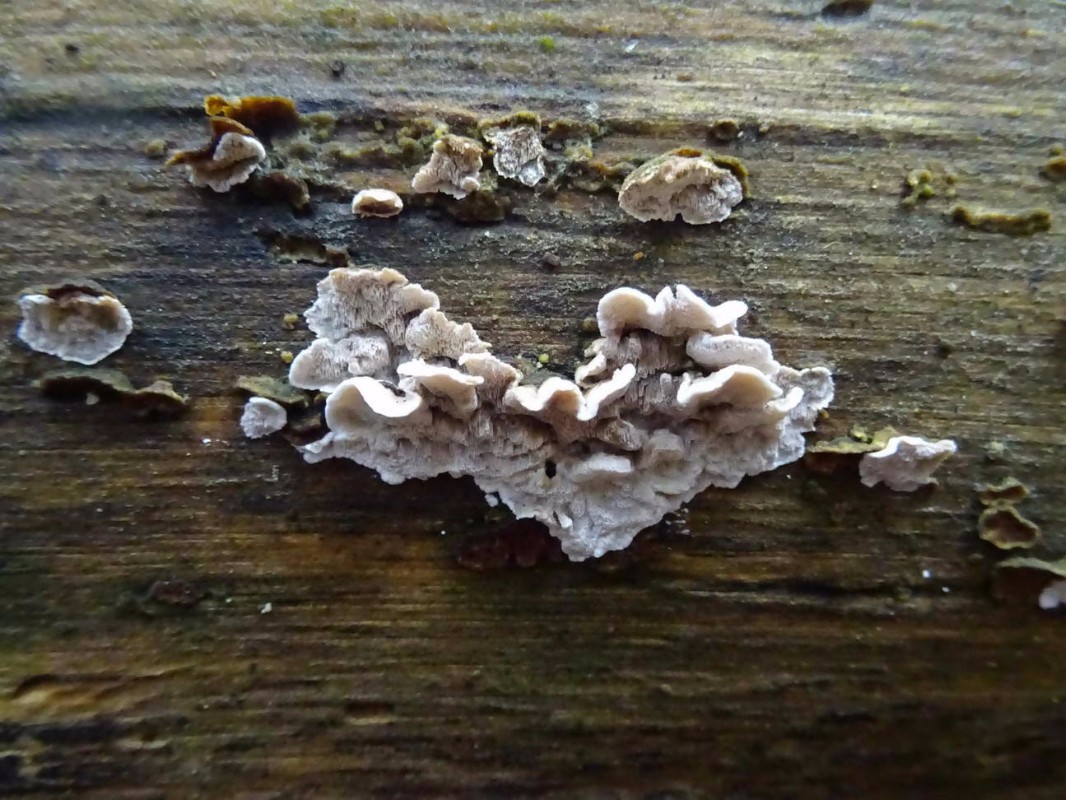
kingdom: Fungi
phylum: Basidiomycota
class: Agaricomycetes
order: Polyporales
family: Incrustoporiaceae
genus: Skeletocutis
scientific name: Skeletocutis carneogrisea
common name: rødgrå krystalporesvamp
